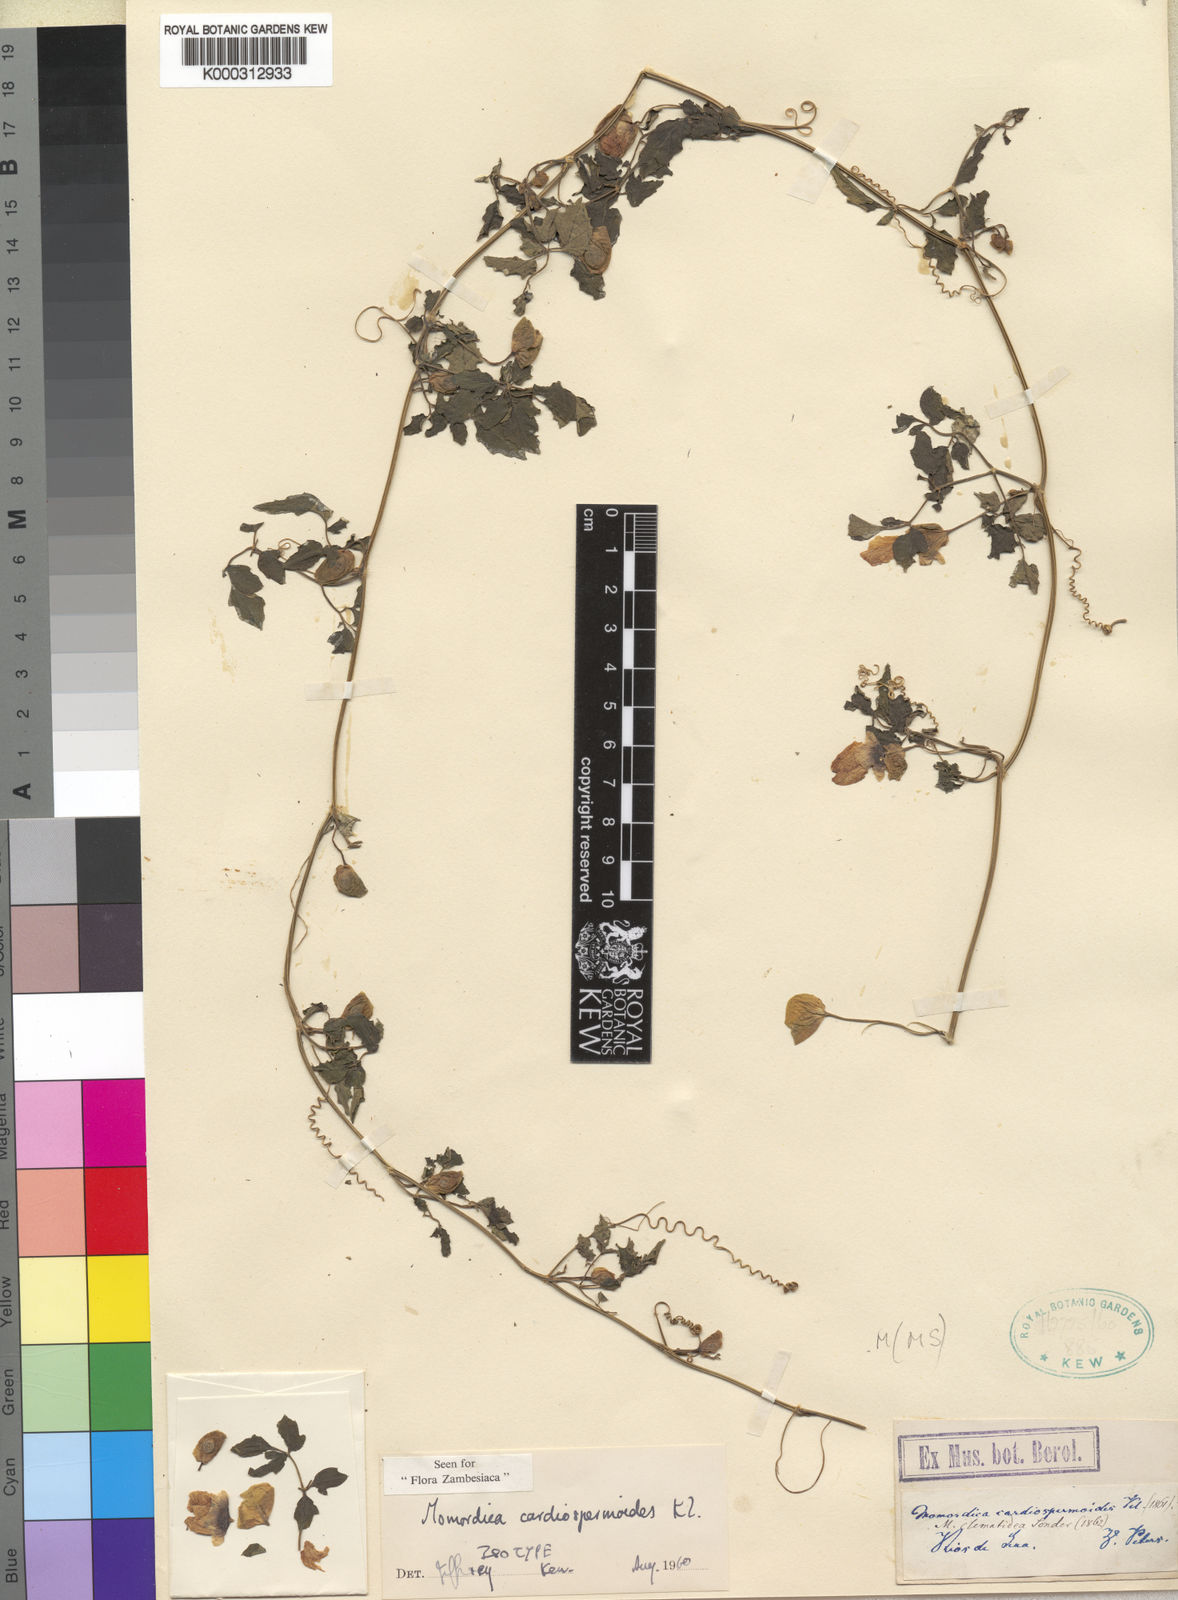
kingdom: Plantae
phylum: Tracheophyta
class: Magnoliopsida
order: Cucurbitales
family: Cucurbitaceae
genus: Momordica
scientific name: Momordica cardiospermoides
